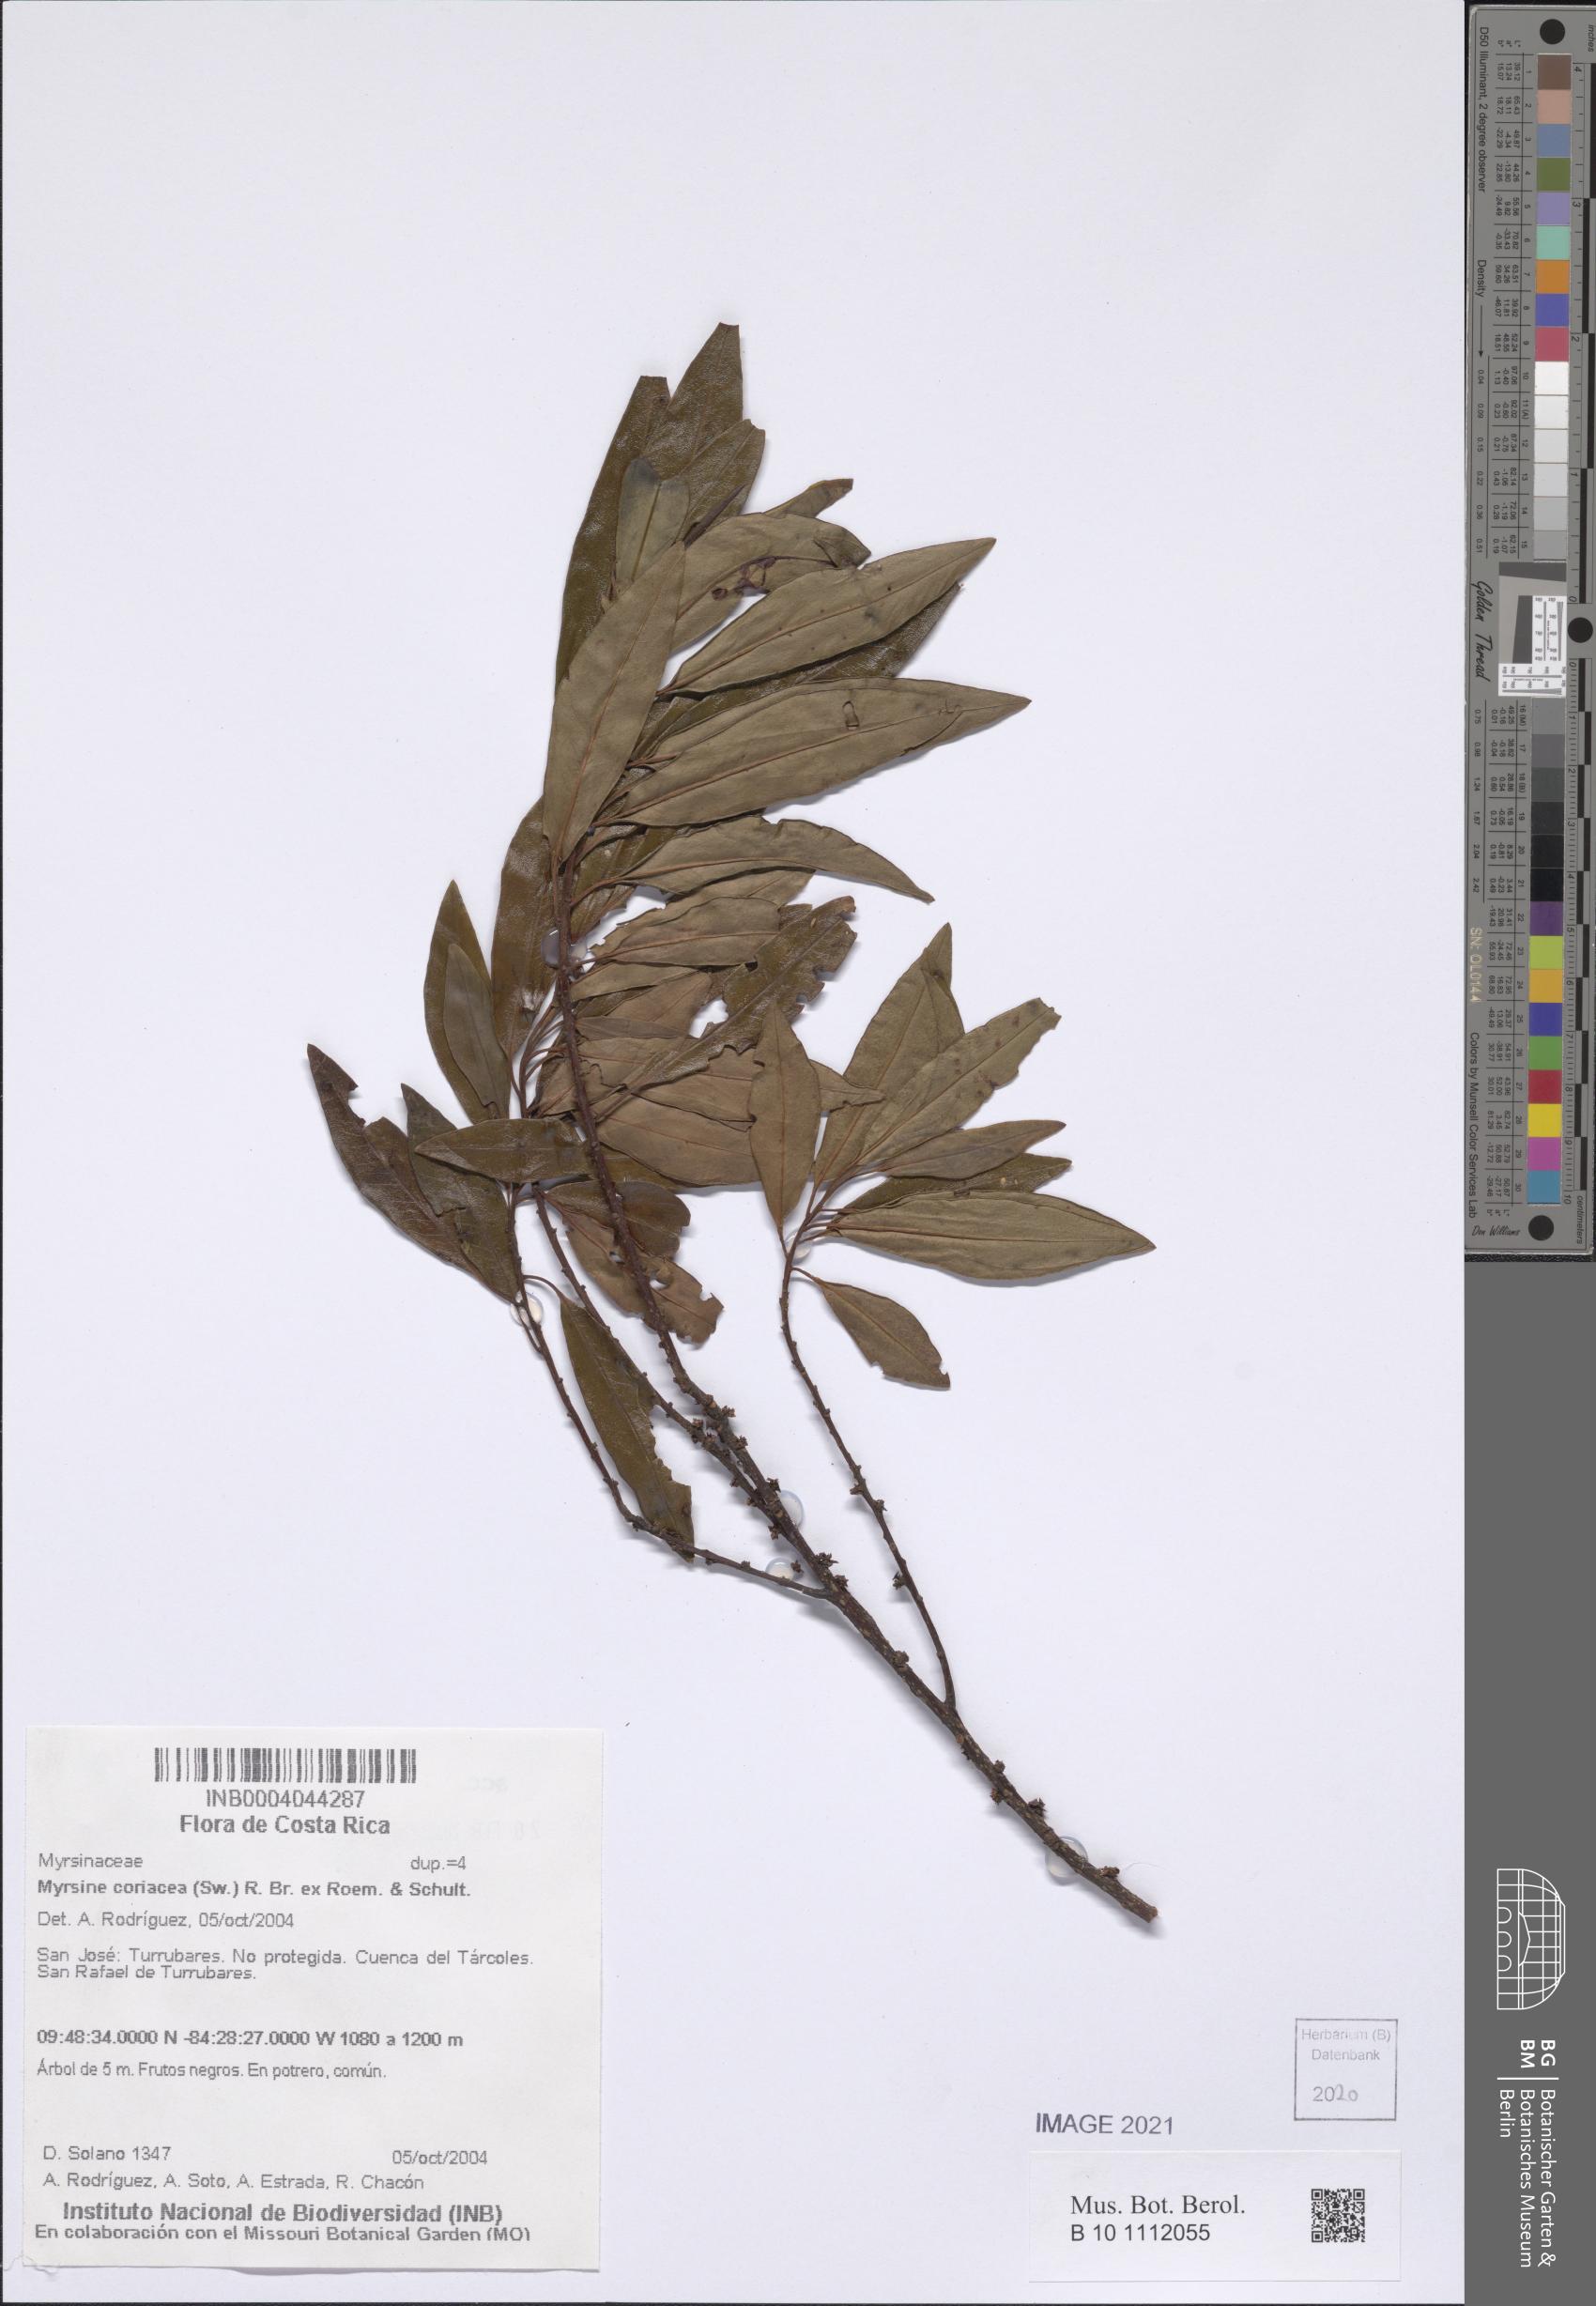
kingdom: Plantae
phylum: Tracheophyta
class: Magnoliopsida
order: Ericales
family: Primulaceae
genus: Myrsine
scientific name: Myrsine coriacea
